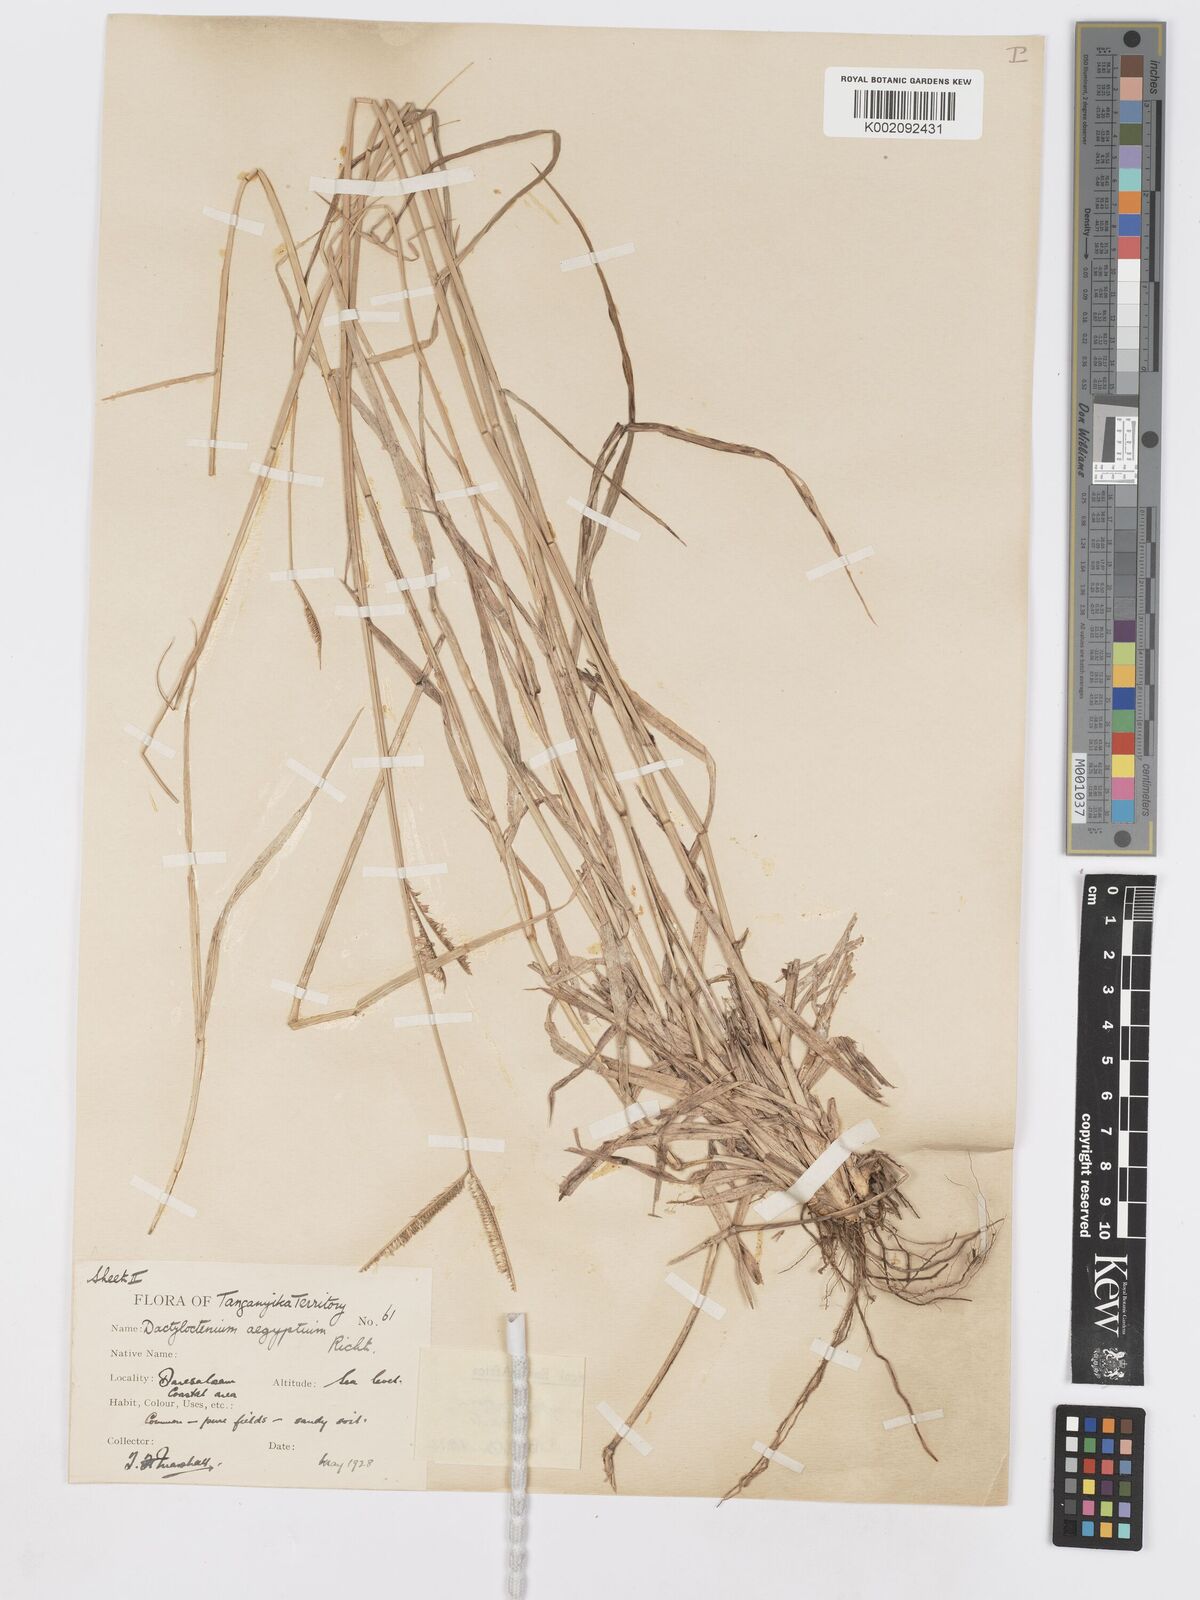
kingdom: Plantae
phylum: Tracheophyta
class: Liliopsida
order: Poales
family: Poaceae
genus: Dactyloctenium
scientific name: Dactyloctenium geminatum
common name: Crowsfoot grass
